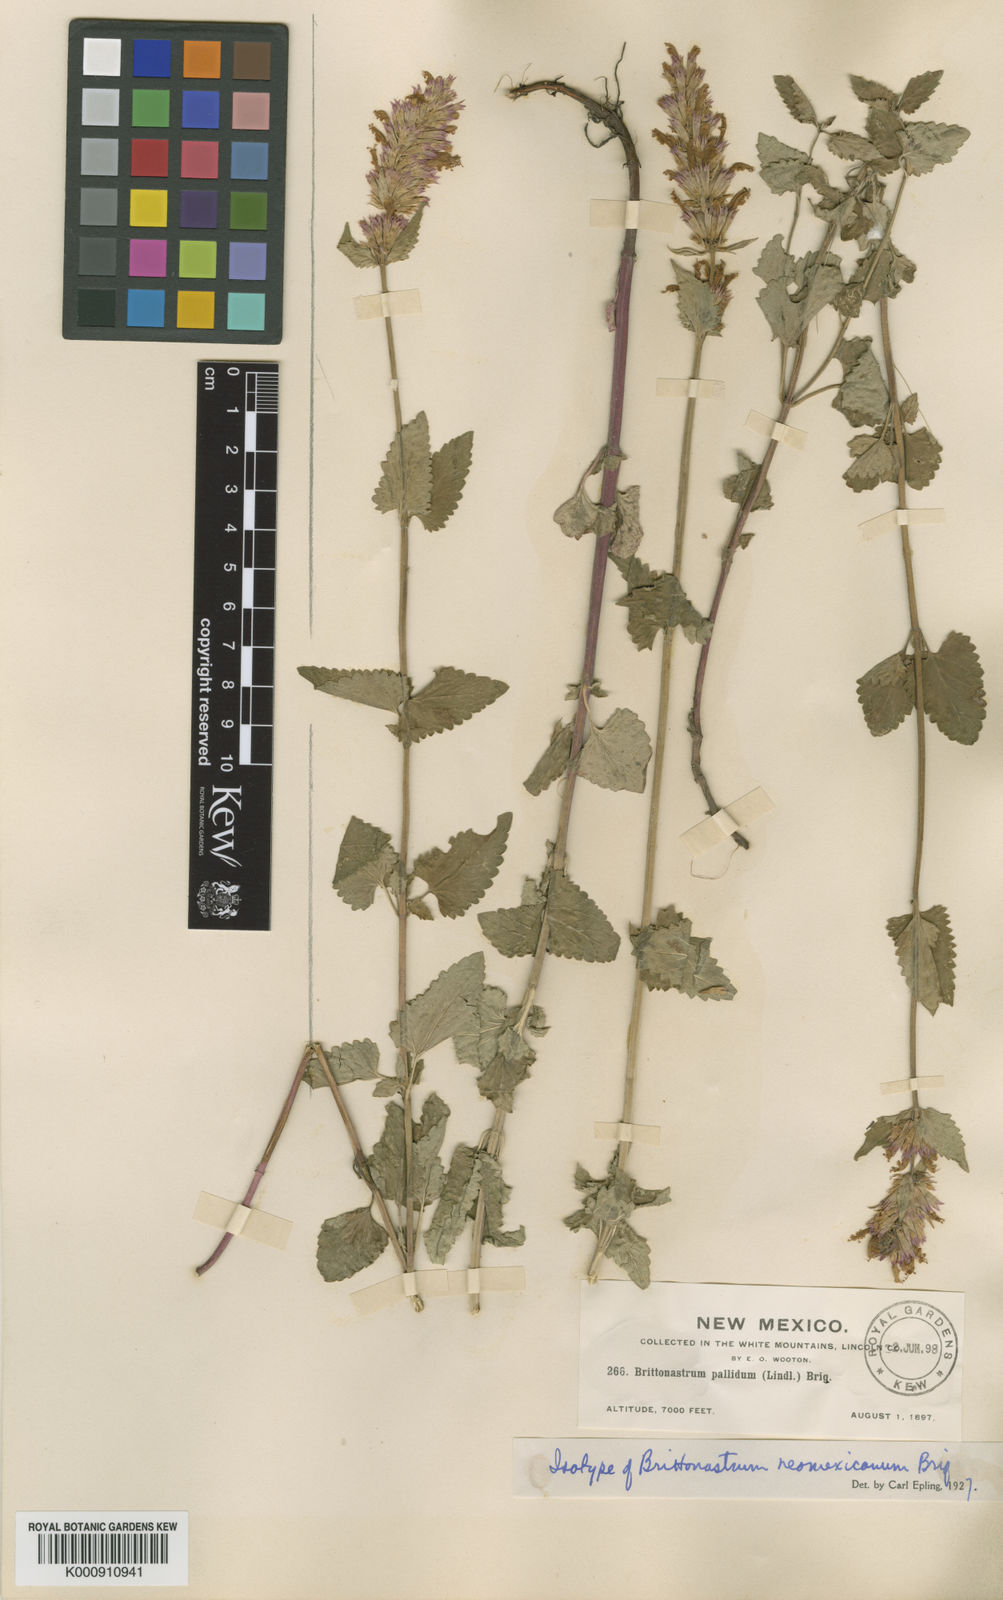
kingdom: Plantae
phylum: Tracheophyta
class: Magnoliopsida
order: Lamiales
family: Lamiaceae
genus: Agastache
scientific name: Agastache pallidiflora
